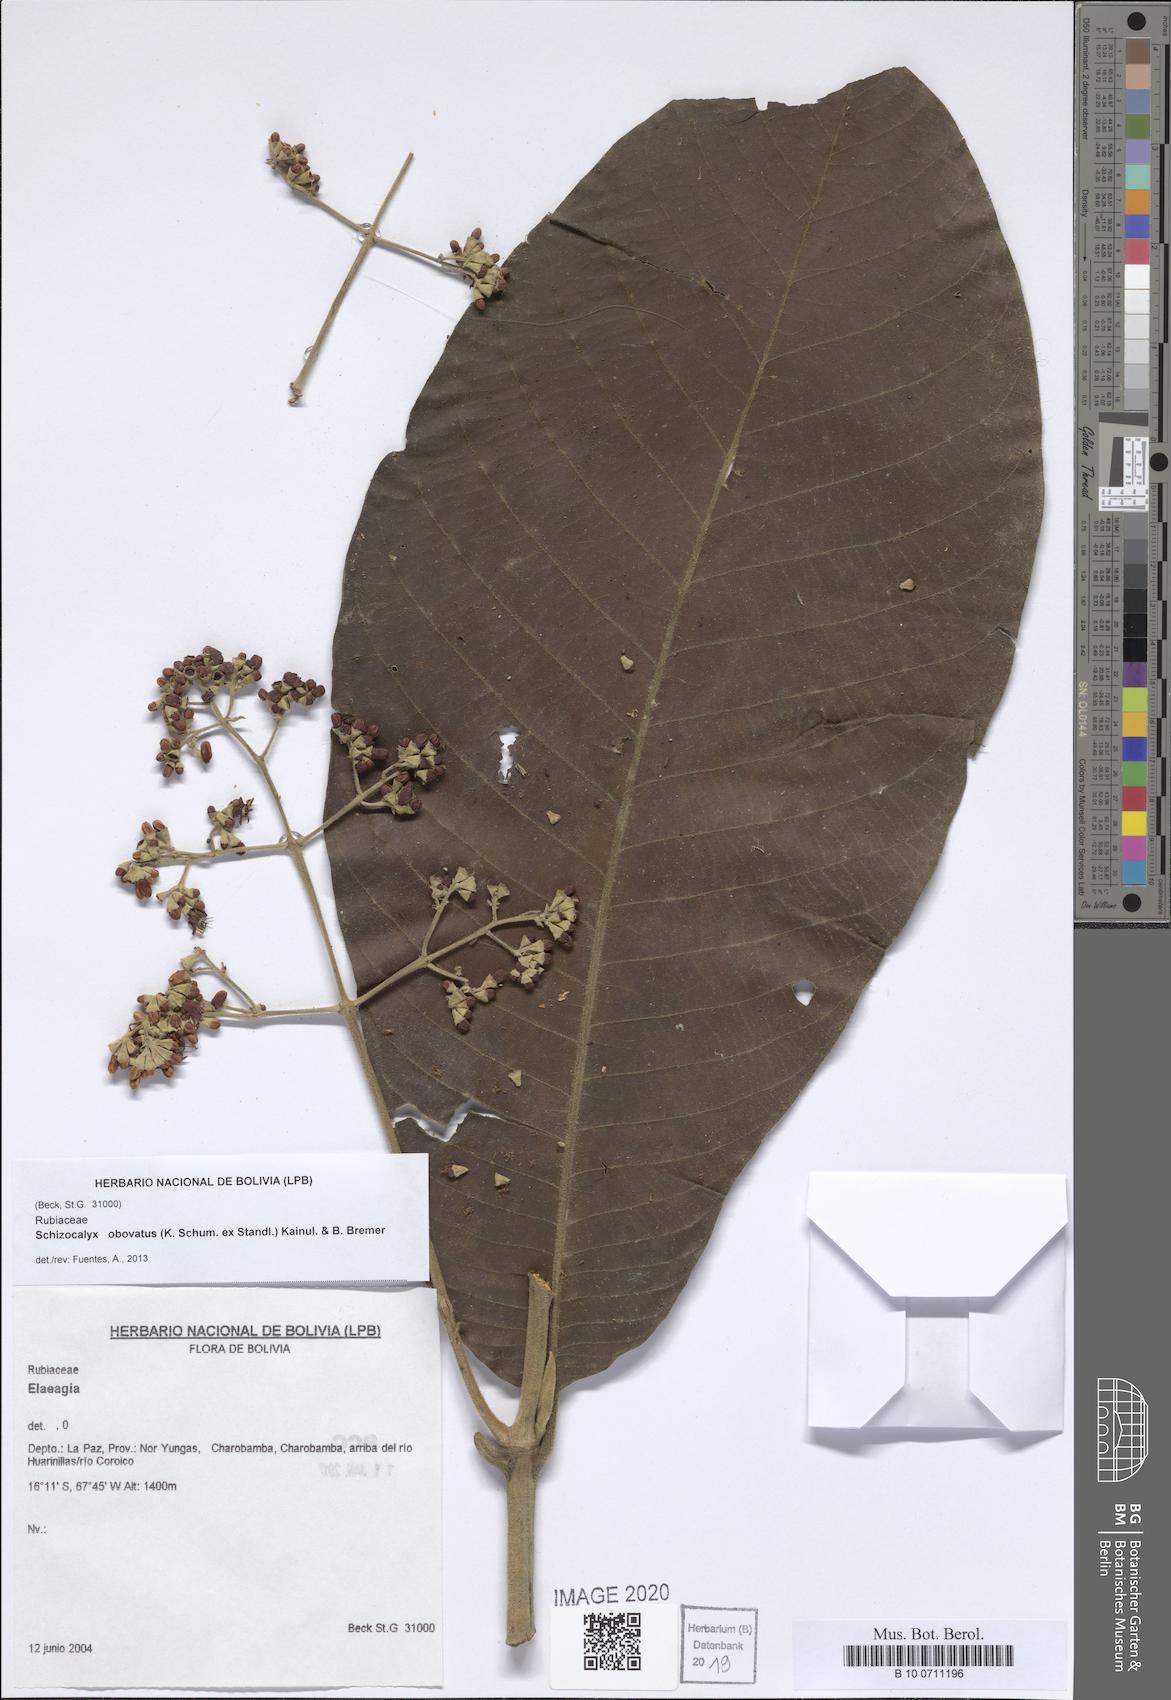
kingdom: Plantae
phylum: Tracheophyta
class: Magnoliopsida
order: Gentianales
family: Rubiaceae
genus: Schizocalyx
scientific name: Schizocalyx obovatus
